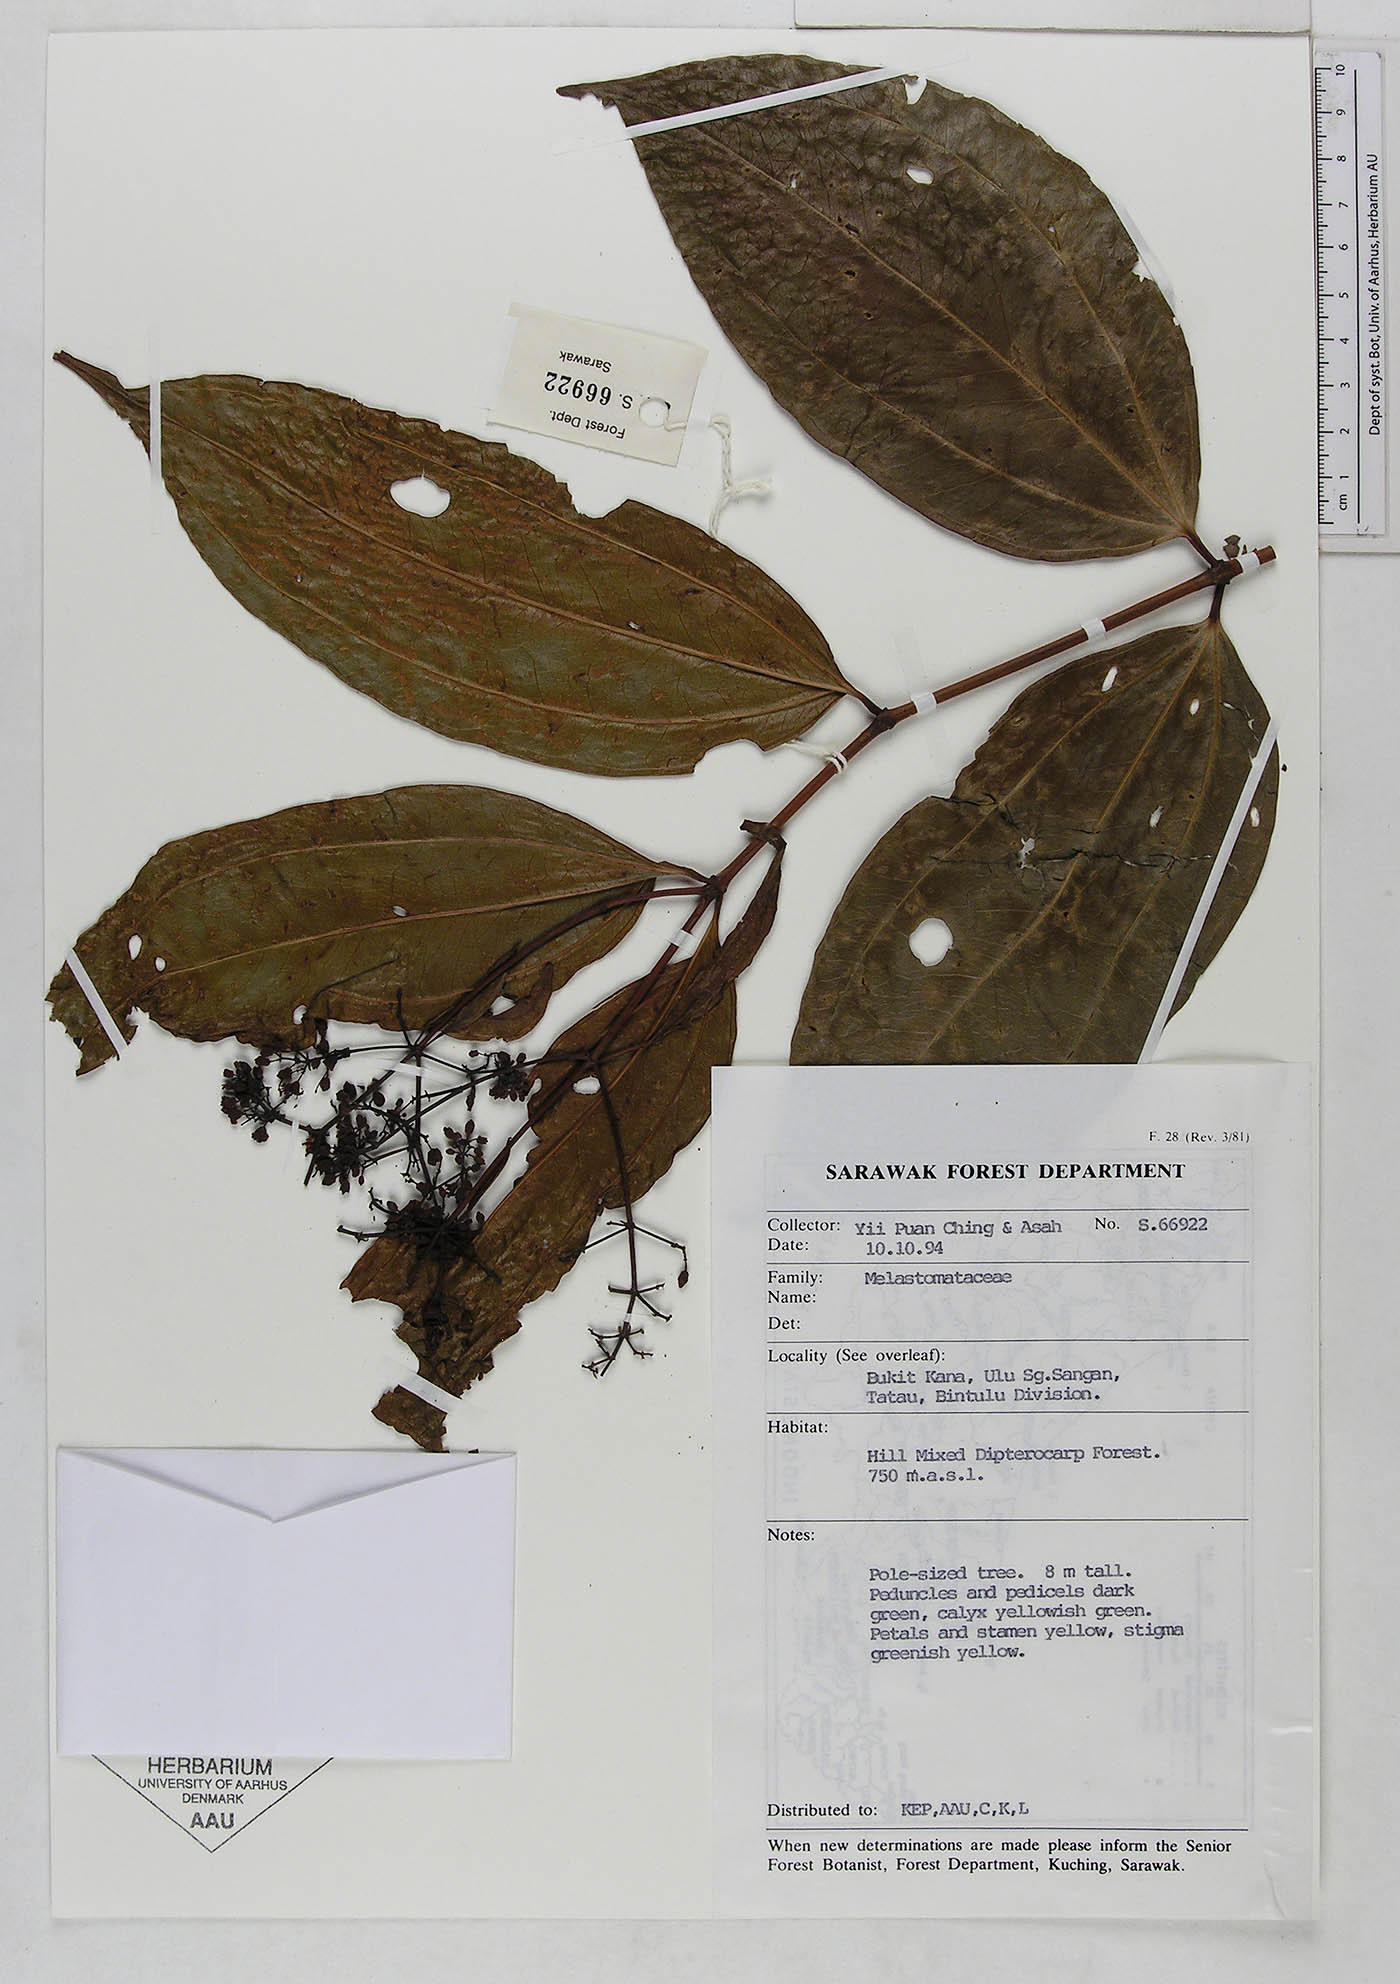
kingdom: Plantae
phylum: Tracheophyta
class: Magnoliopsida
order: Myrtales
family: Melastomataceae
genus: Memecylon
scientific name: Memecylon
